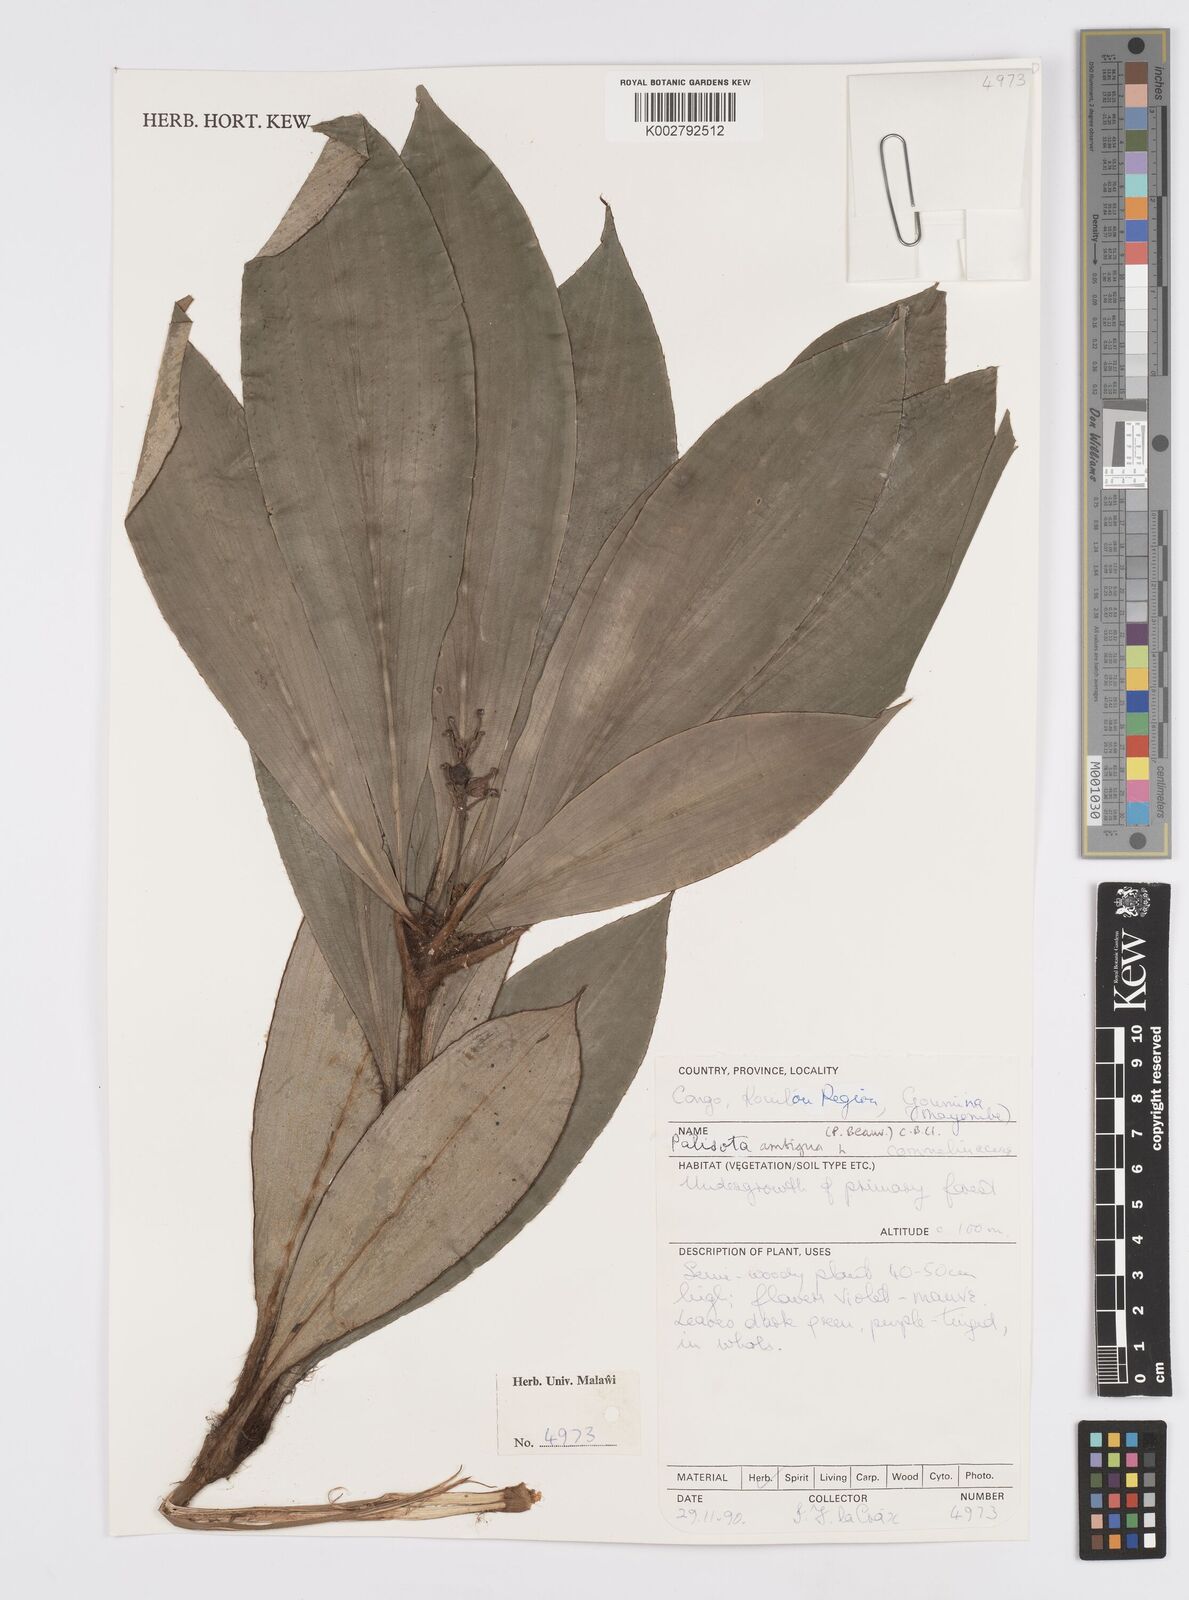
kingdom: Plantae
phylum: Tracheophyta
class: Liliopsida
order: Commelinales
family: Commelinaceae
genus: Palisota
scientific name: Palisota ambigua
